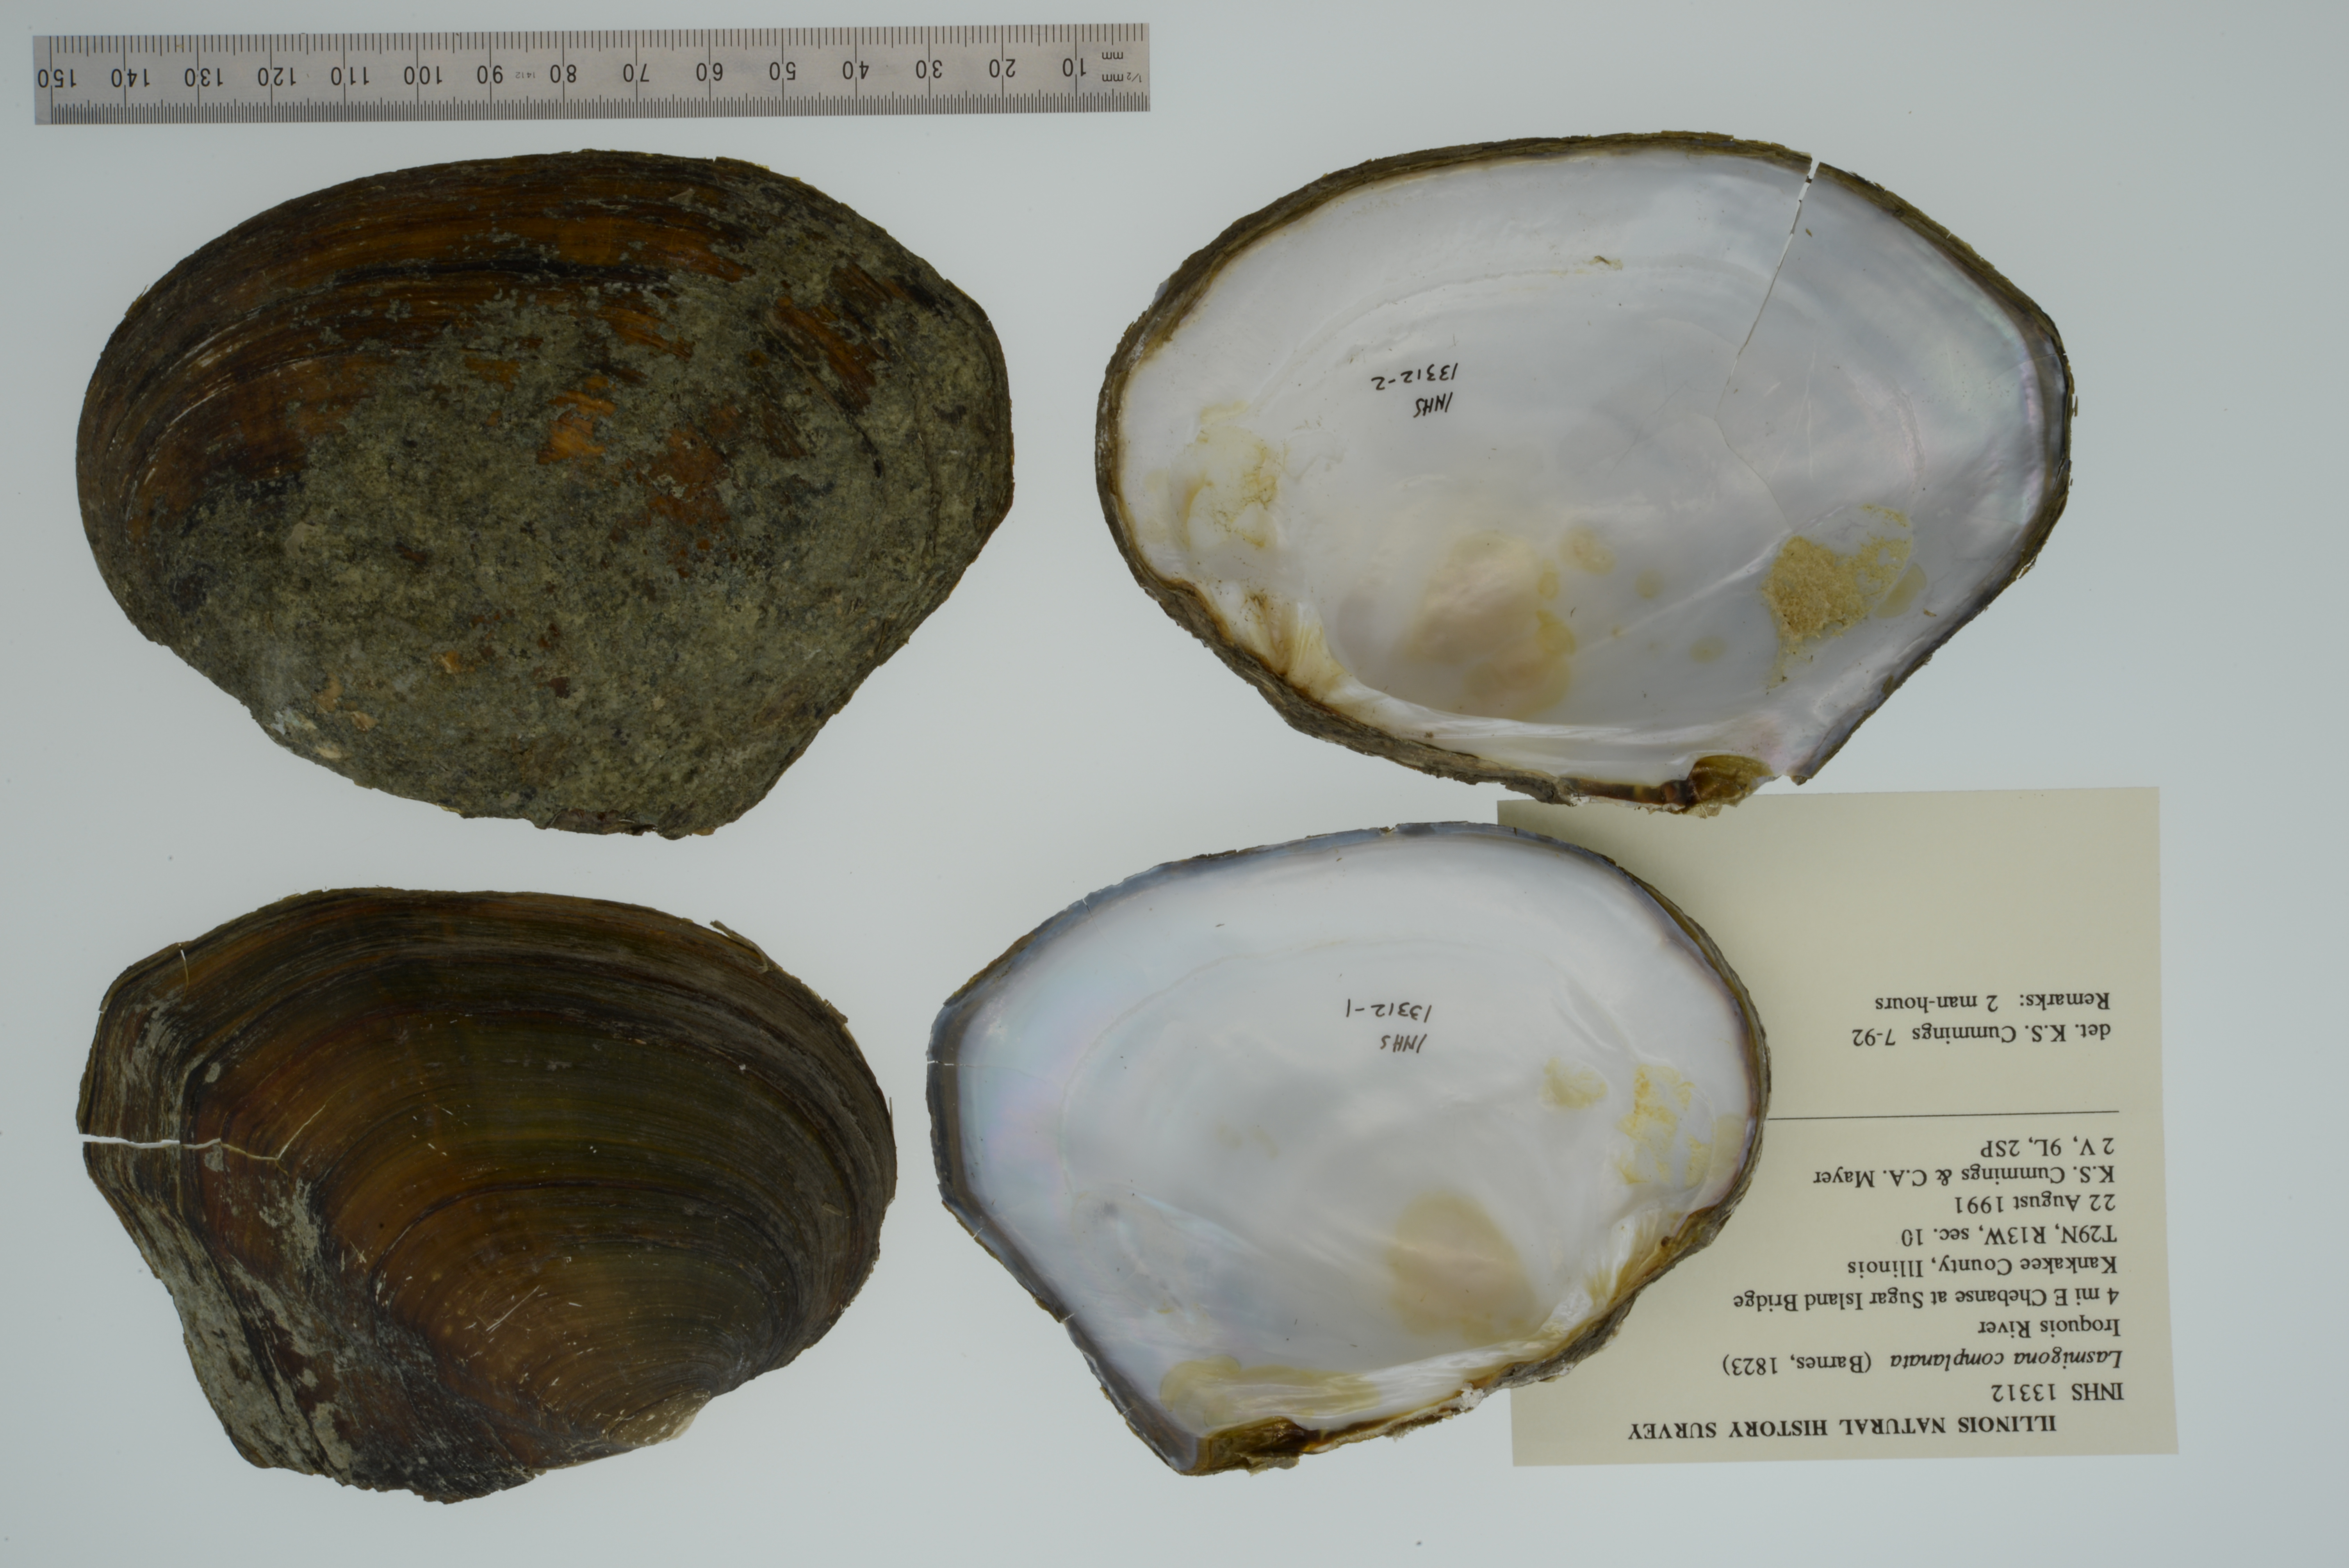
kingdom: Animalia
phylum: Mollusca
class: Bivalvia
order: Unionida
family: Unionidae
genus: Lasmigona
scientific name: Lasmigona complanata
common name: White heelsplitter
